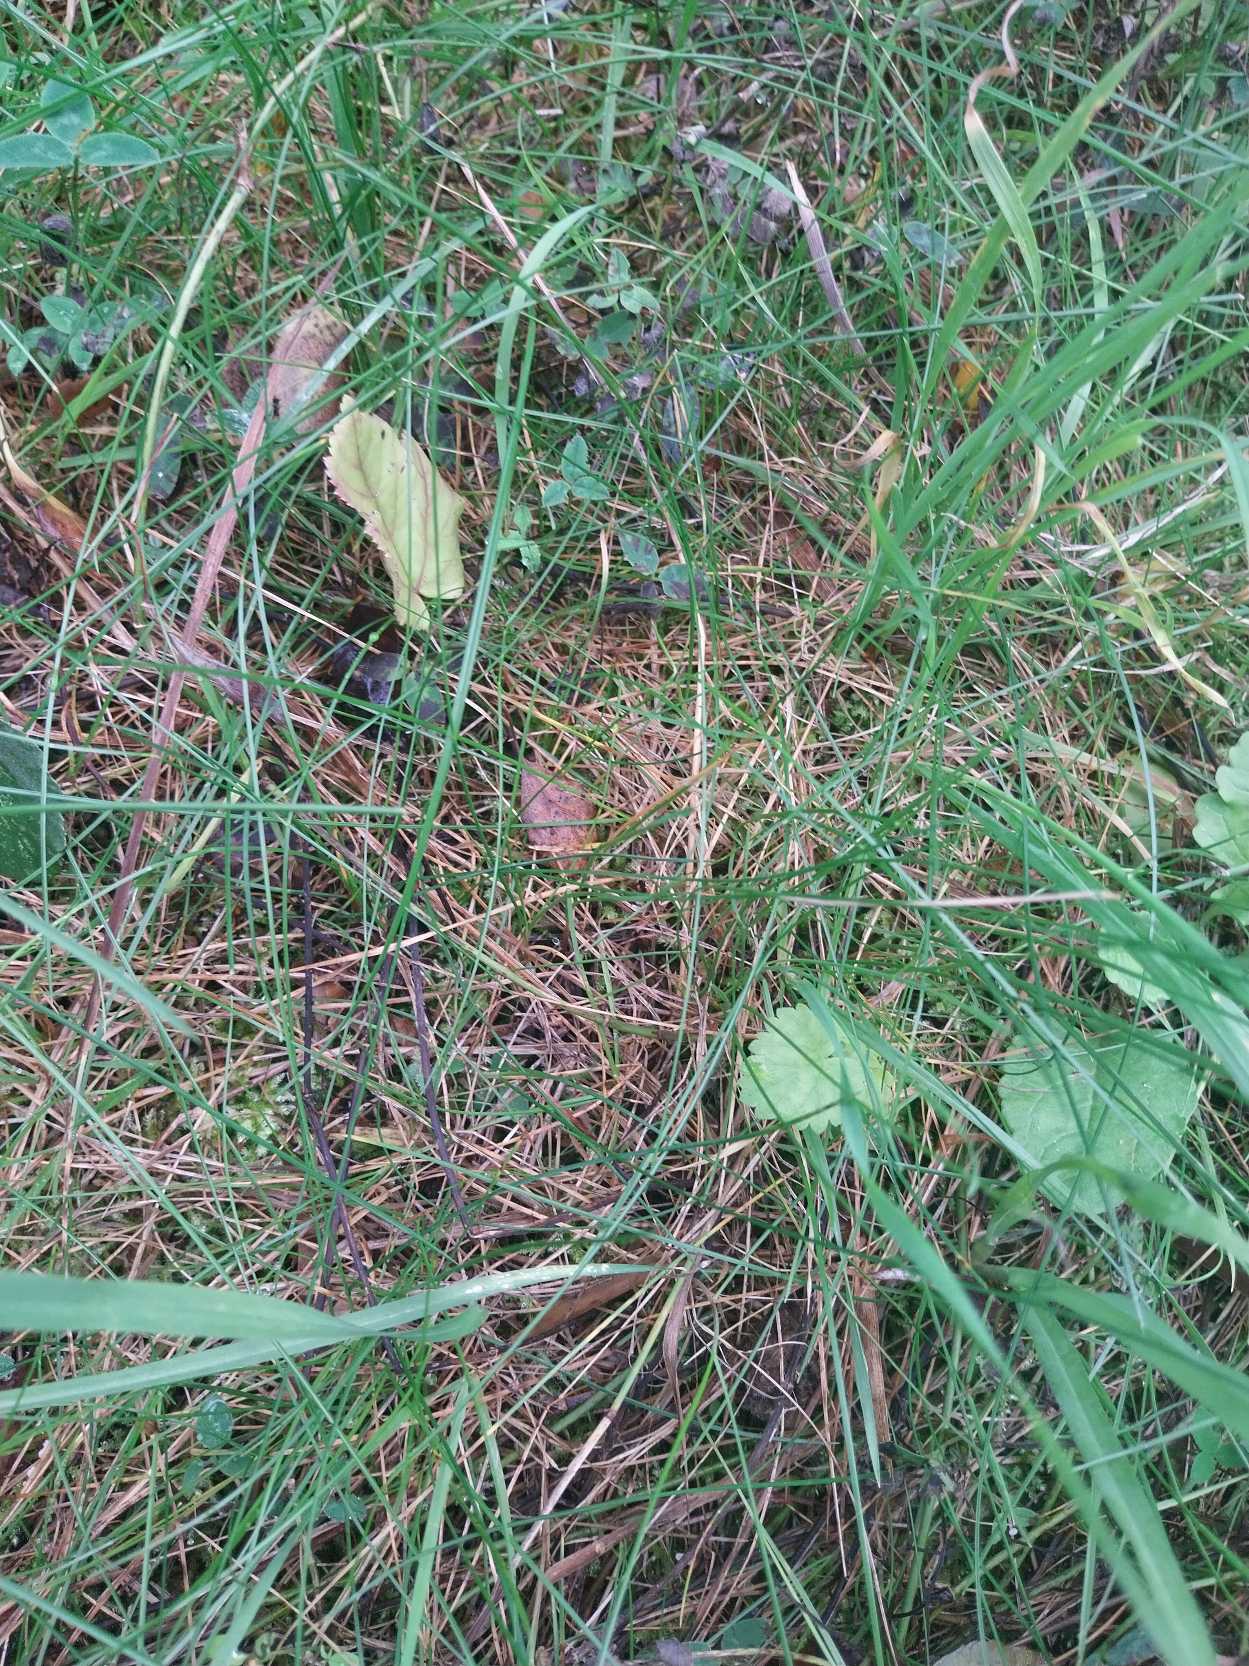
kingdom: Plantae
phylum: Tracheophyta
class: Liliopsida
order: Poales
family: Poaceae
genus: Festuca
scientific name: Festuca rubra
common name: Rød svingel
